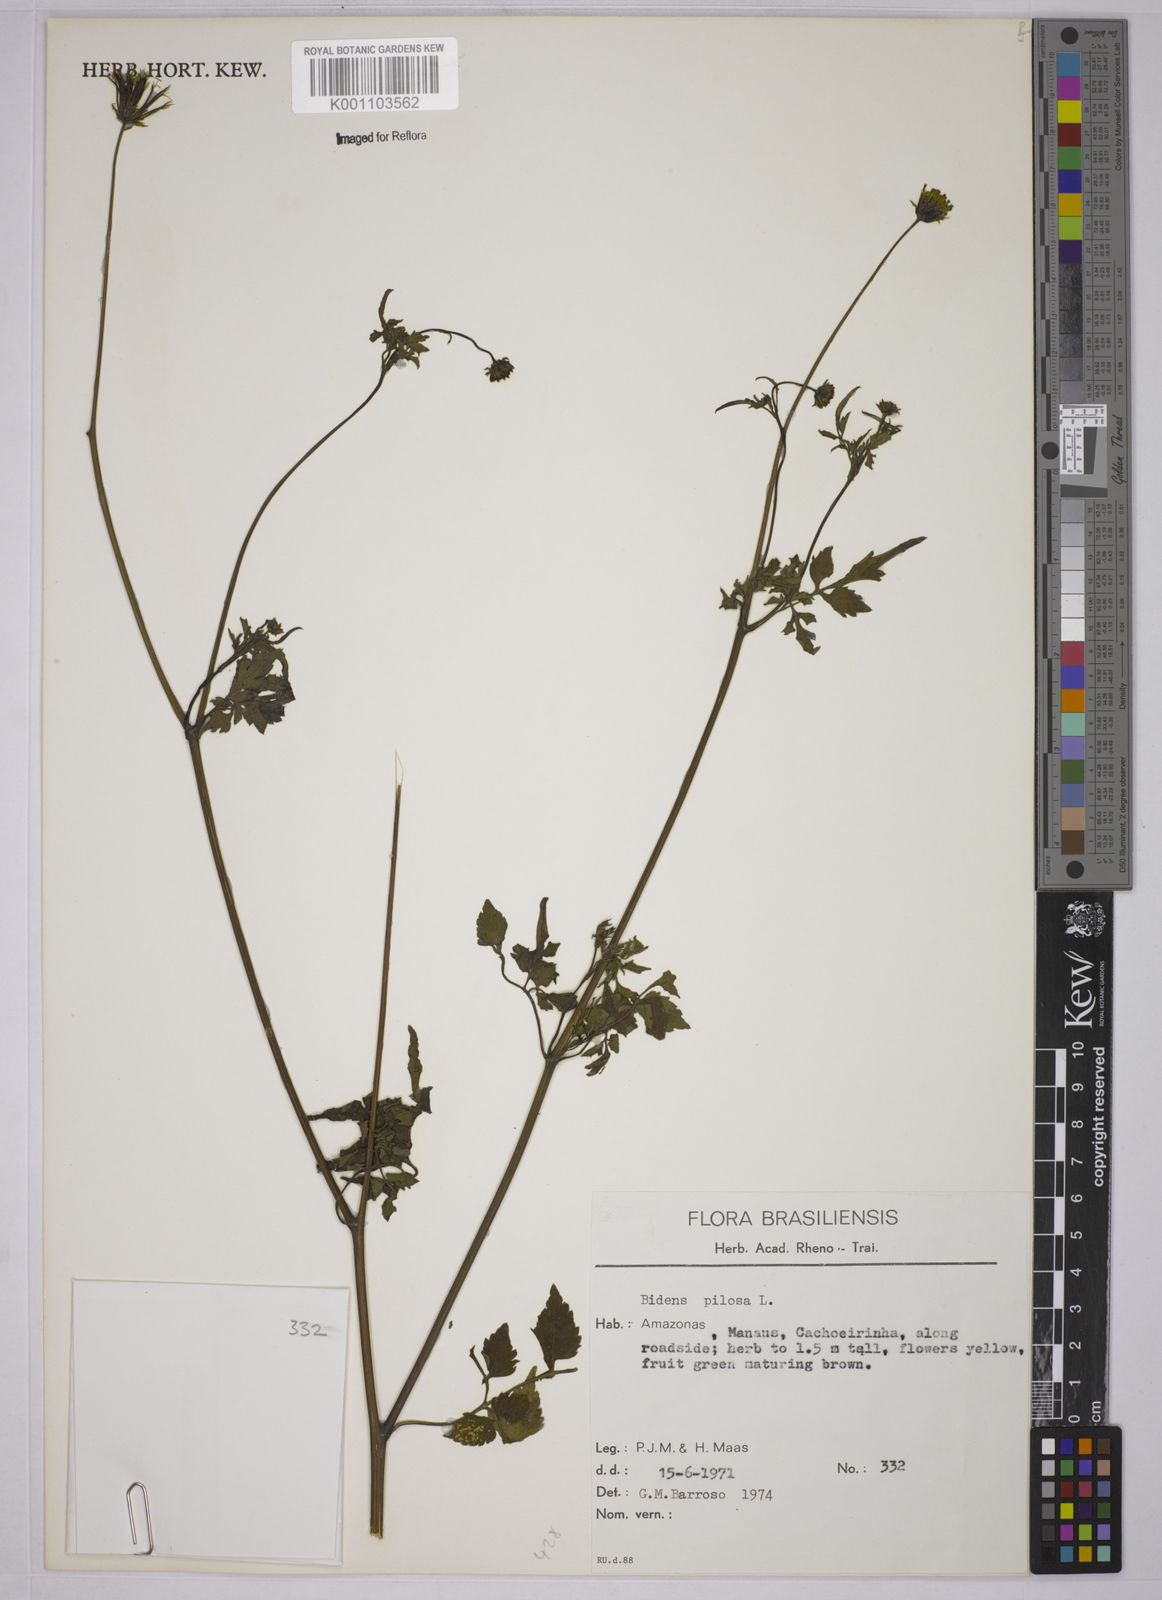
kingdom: Plantae
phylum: Tracheophyta
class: Magnoliopsida
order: Asterales
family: Asteraceae
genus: Bidens
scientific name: Bidens pilosa
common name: Black-jack
